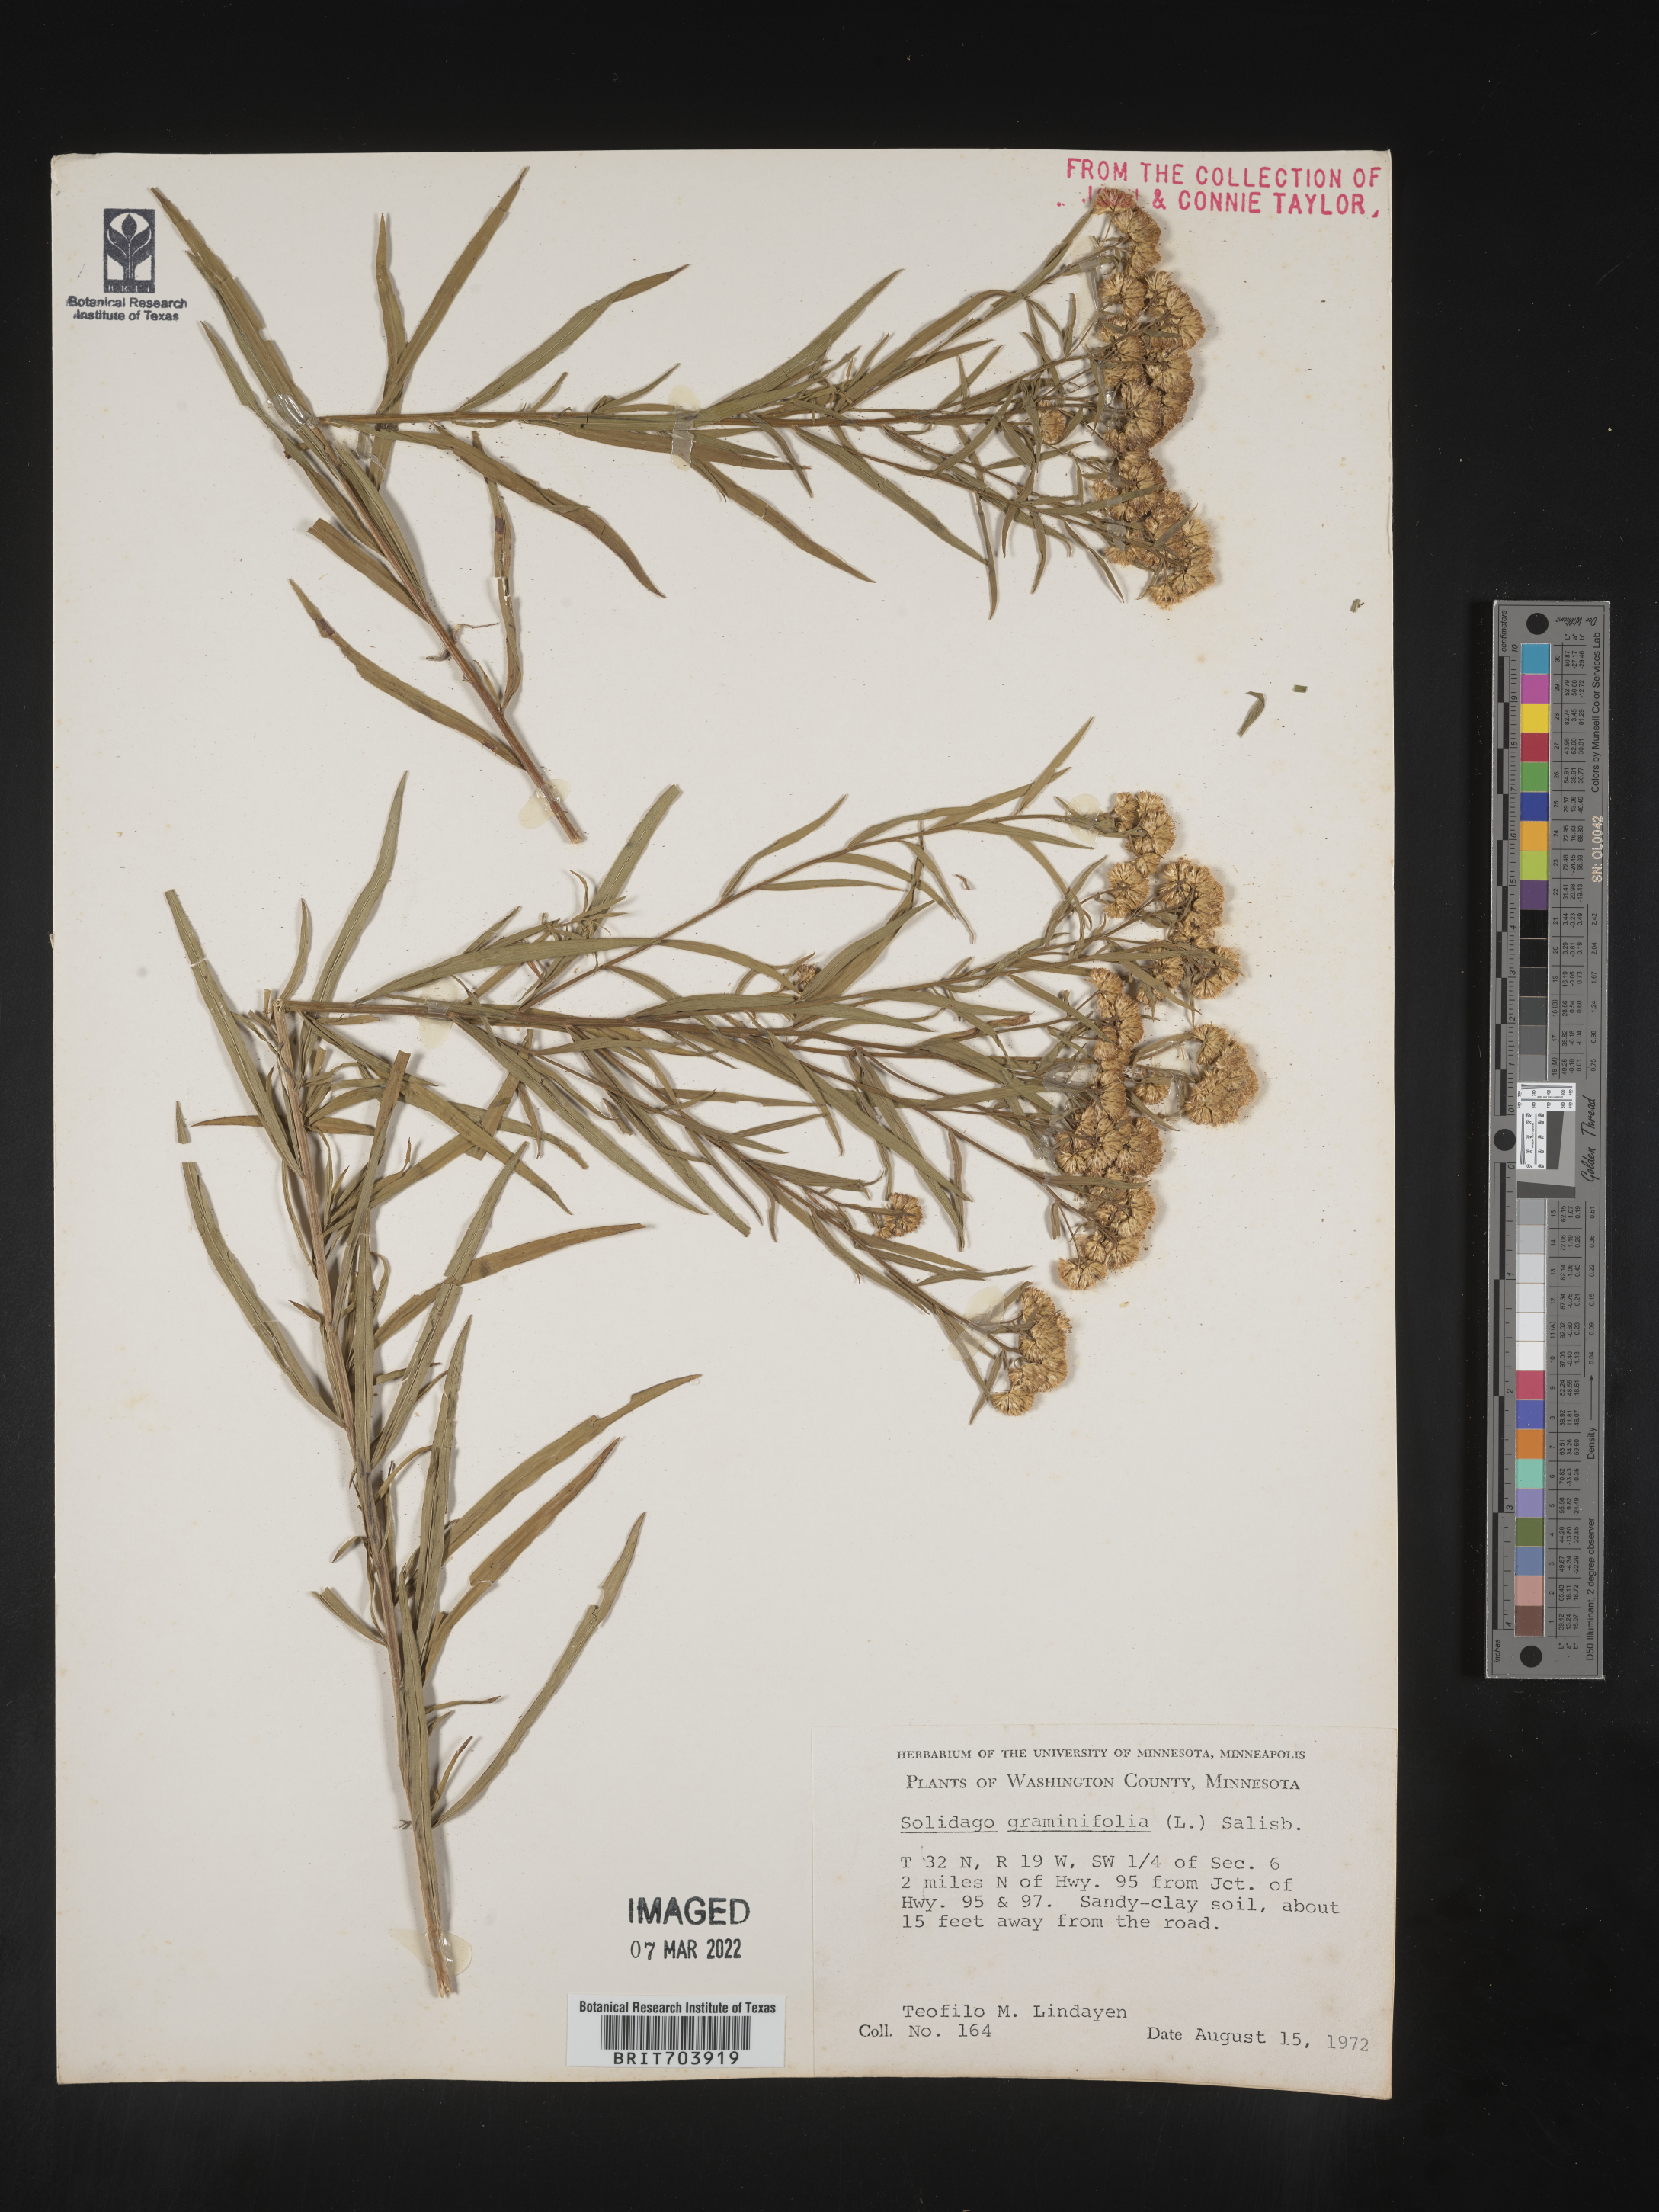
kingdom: Plantae
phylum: Tracheophyta
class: Magnoliopsida
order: Asterales
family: Asteraceae
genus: Euthamia
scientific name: Euthamia graminifolia
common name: Common goldentop
